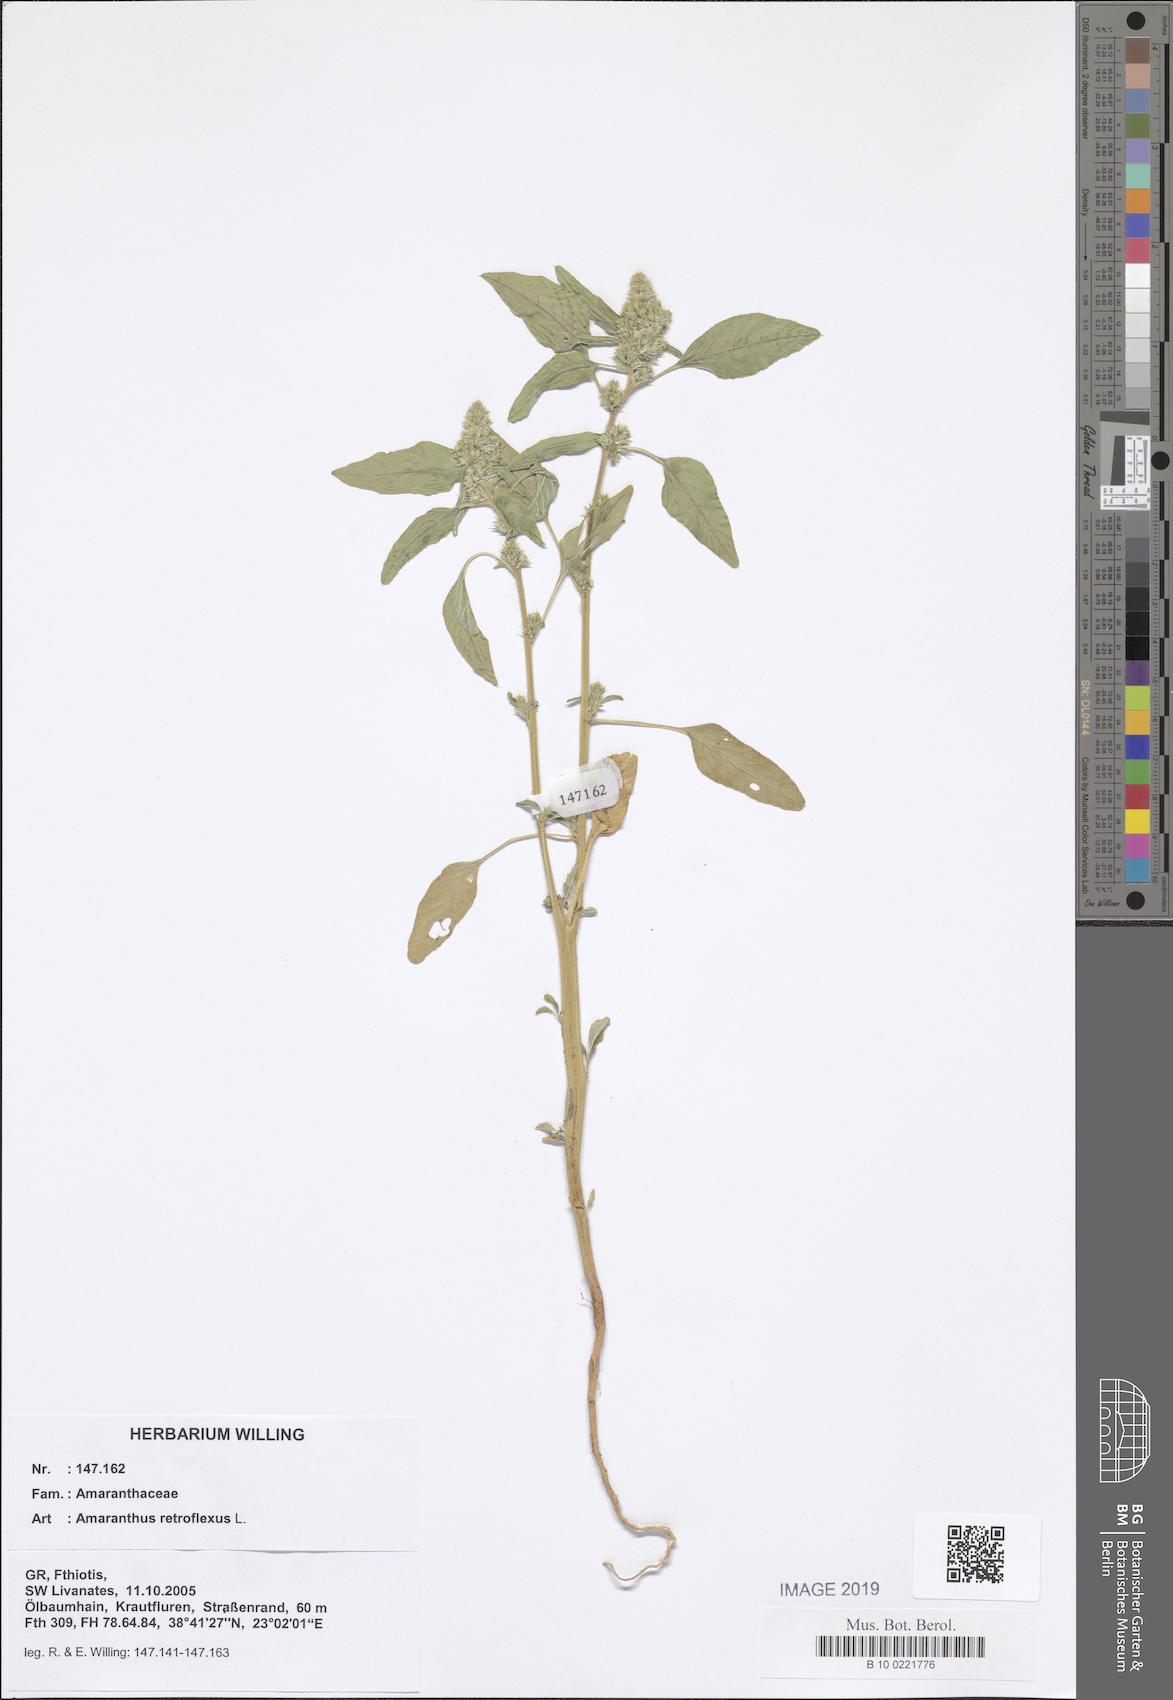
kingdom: Plantae
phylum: Tracheophyta
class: Magnoliopsida
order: Caryophyllales
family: Amaranthaceae
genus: Amaranthus
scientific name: Amaranthus retroflexus
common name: Redroot amaranth
